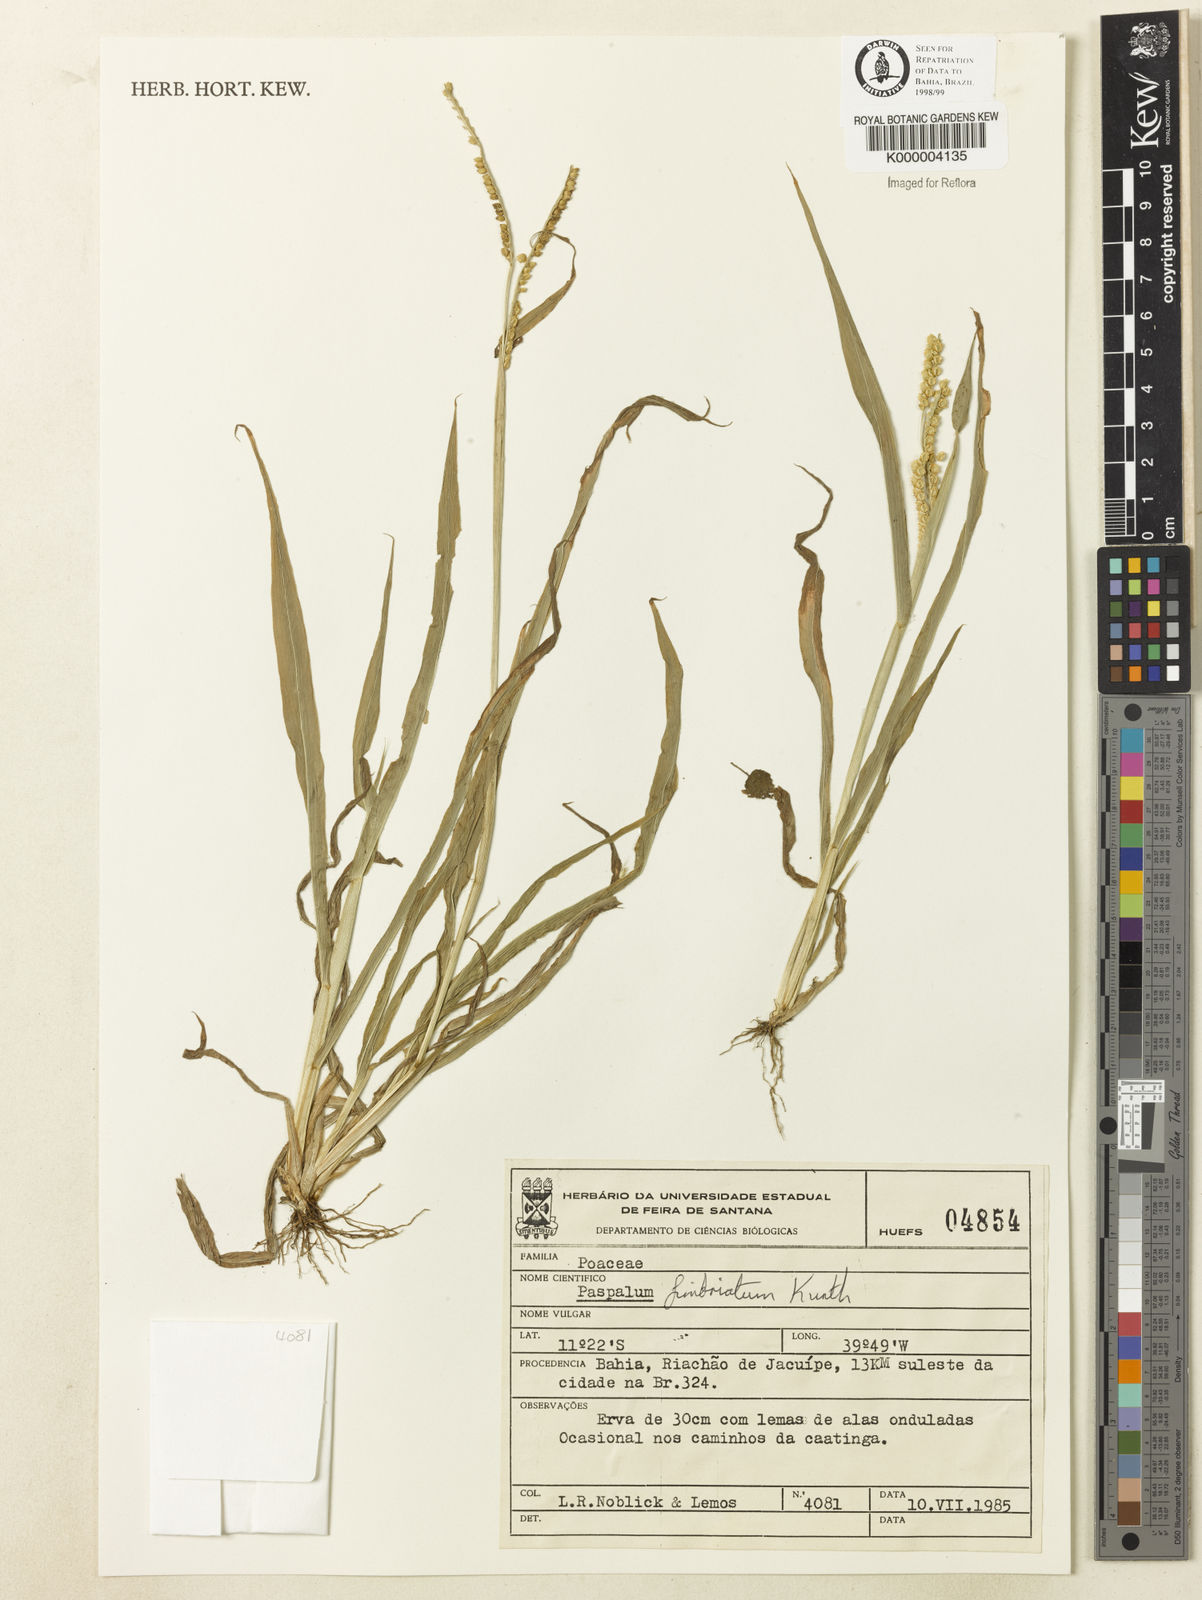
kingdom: Plantae
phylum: Tracheophyta
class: Liliopsida
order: Poales
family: Poaceae
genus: Paspalum
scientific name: Paspalum fimbriatum
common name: Panama crowngrass
